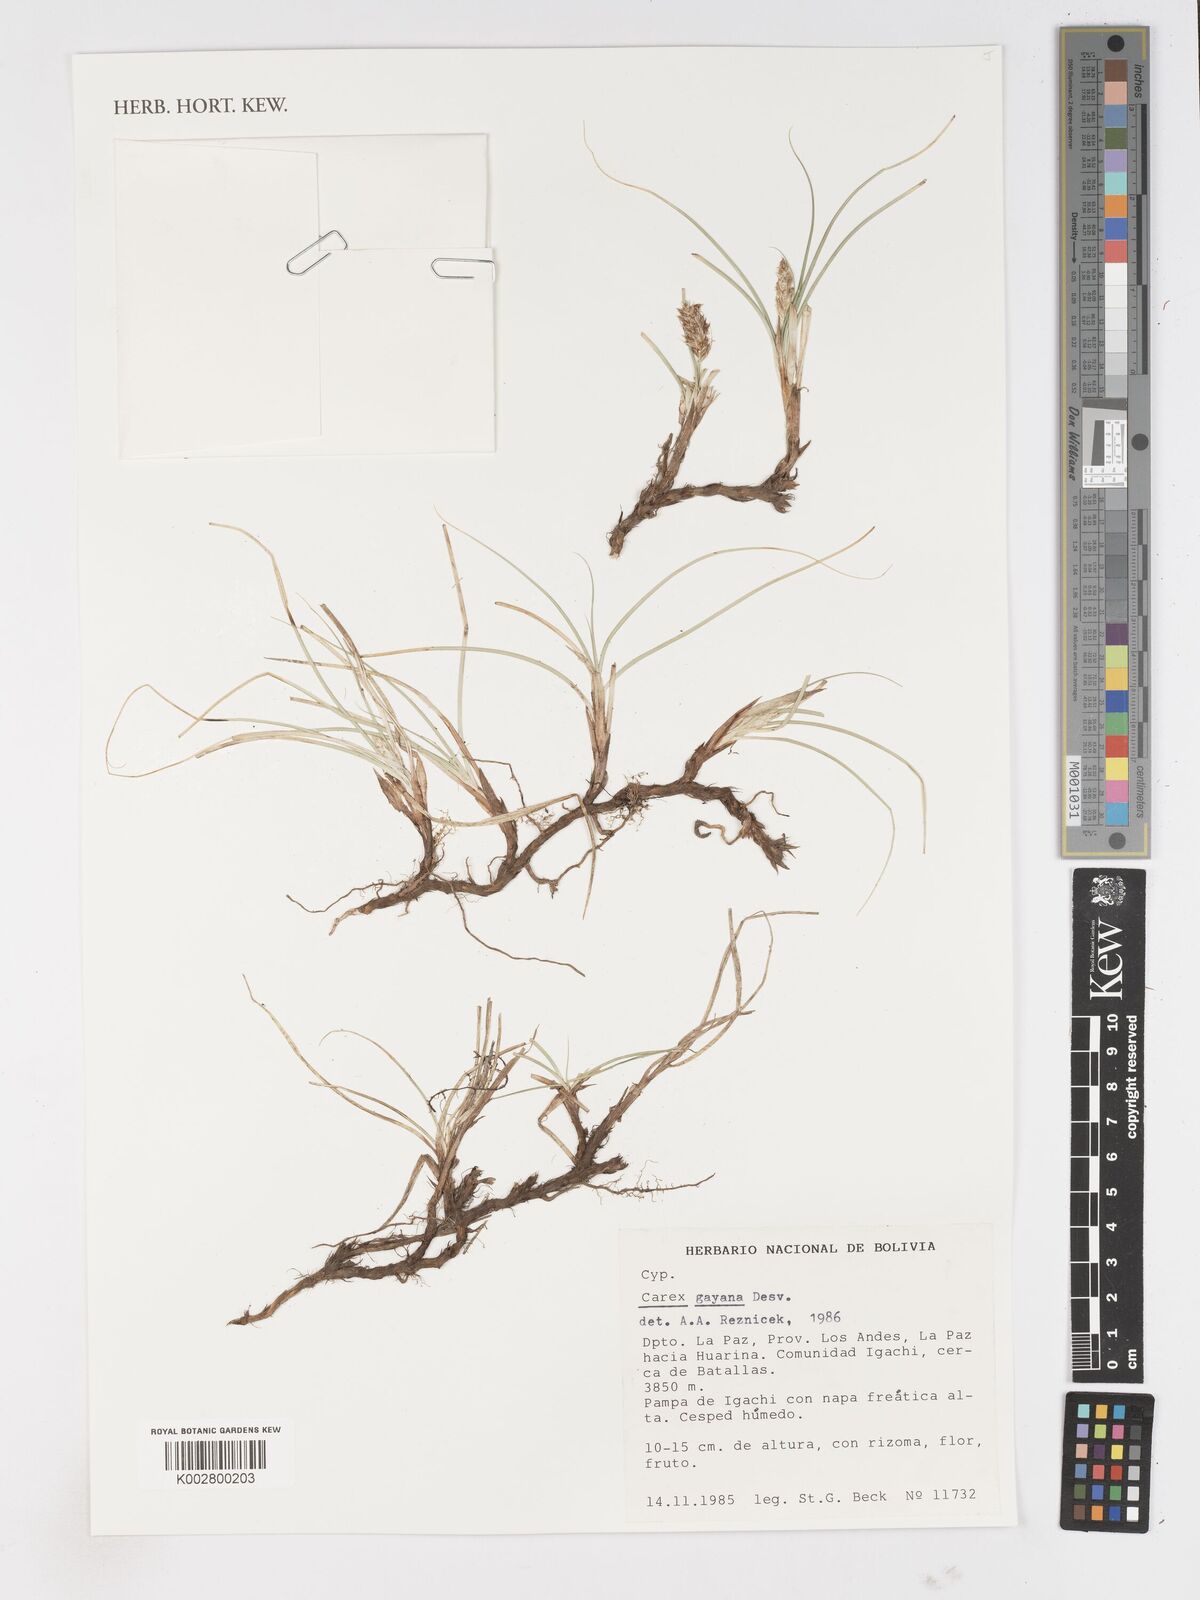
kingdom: Plantae
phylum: Tracheophyta
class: Liliopsida
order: Poales
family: Cyperaceae
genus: Carex
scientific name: Carex gayana
